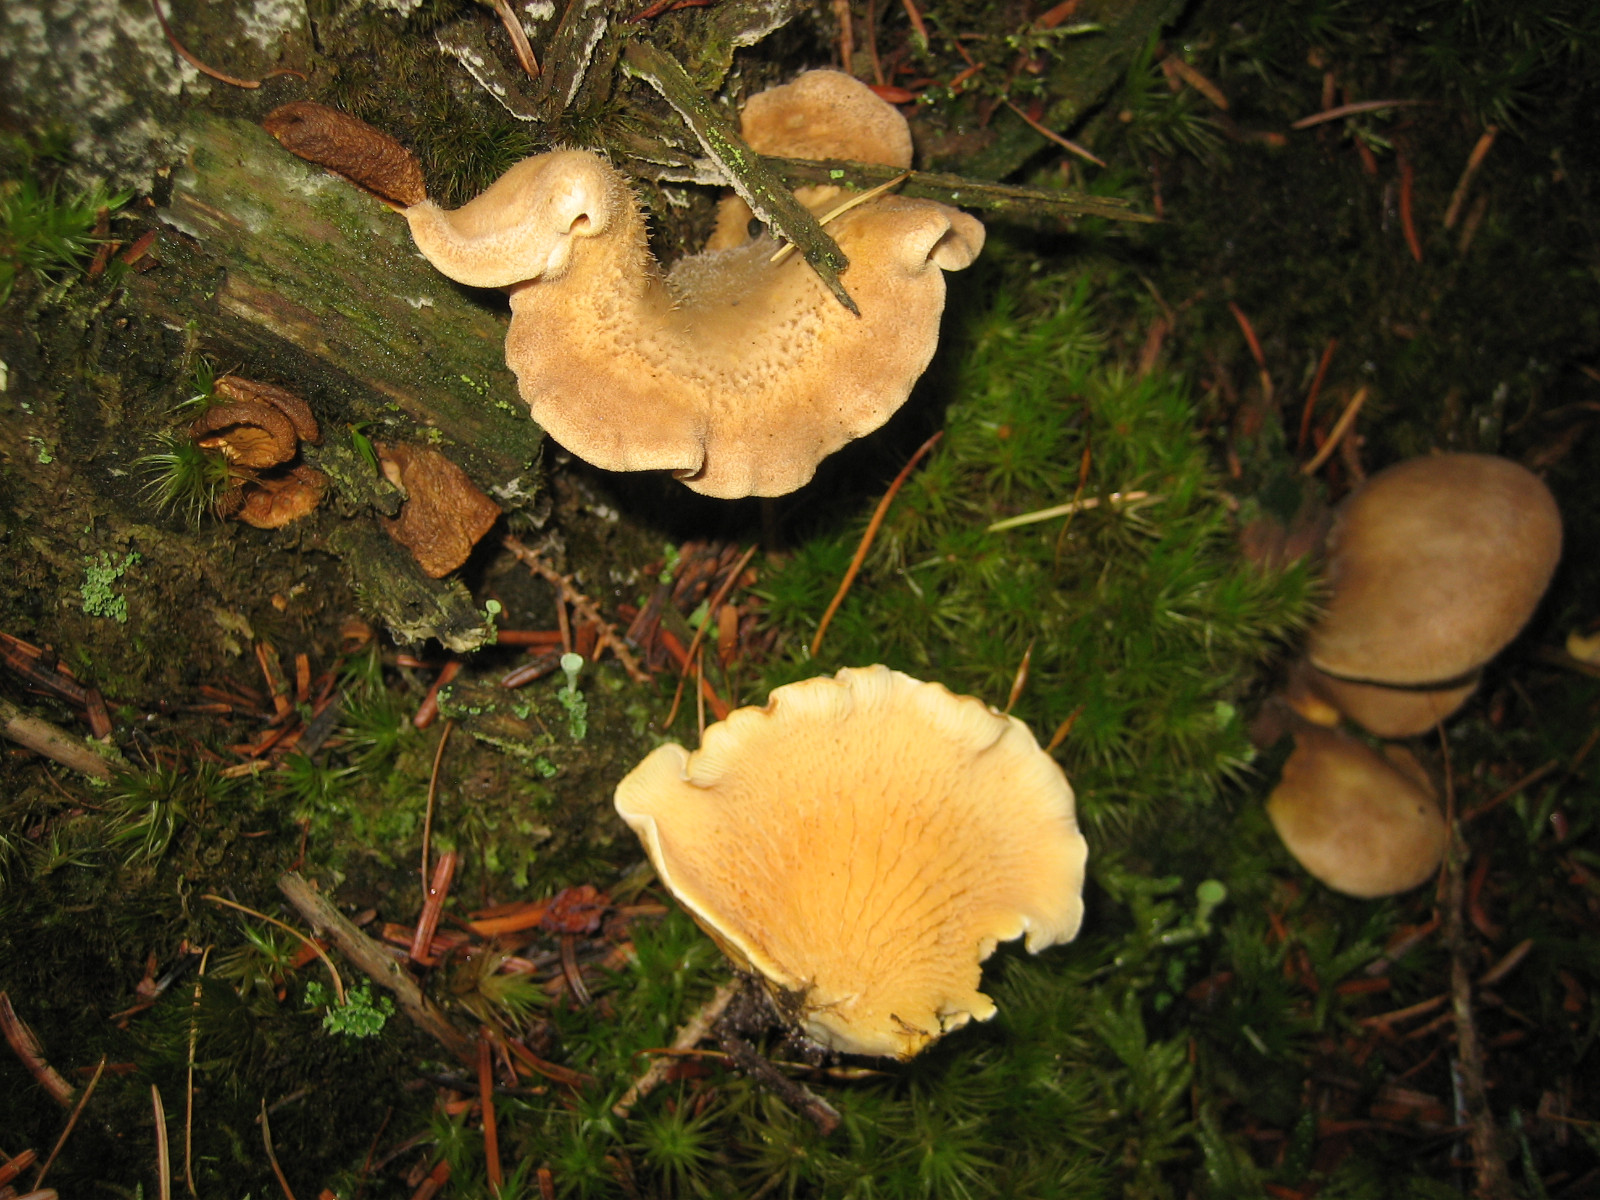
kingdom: Fungi
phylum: Basidiomycota
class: Agaricomycetes
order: Boletales
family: Tapinellaceae
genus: Tapinella
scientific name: Tapinella panuoides
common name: tømmer-viftesvamp
